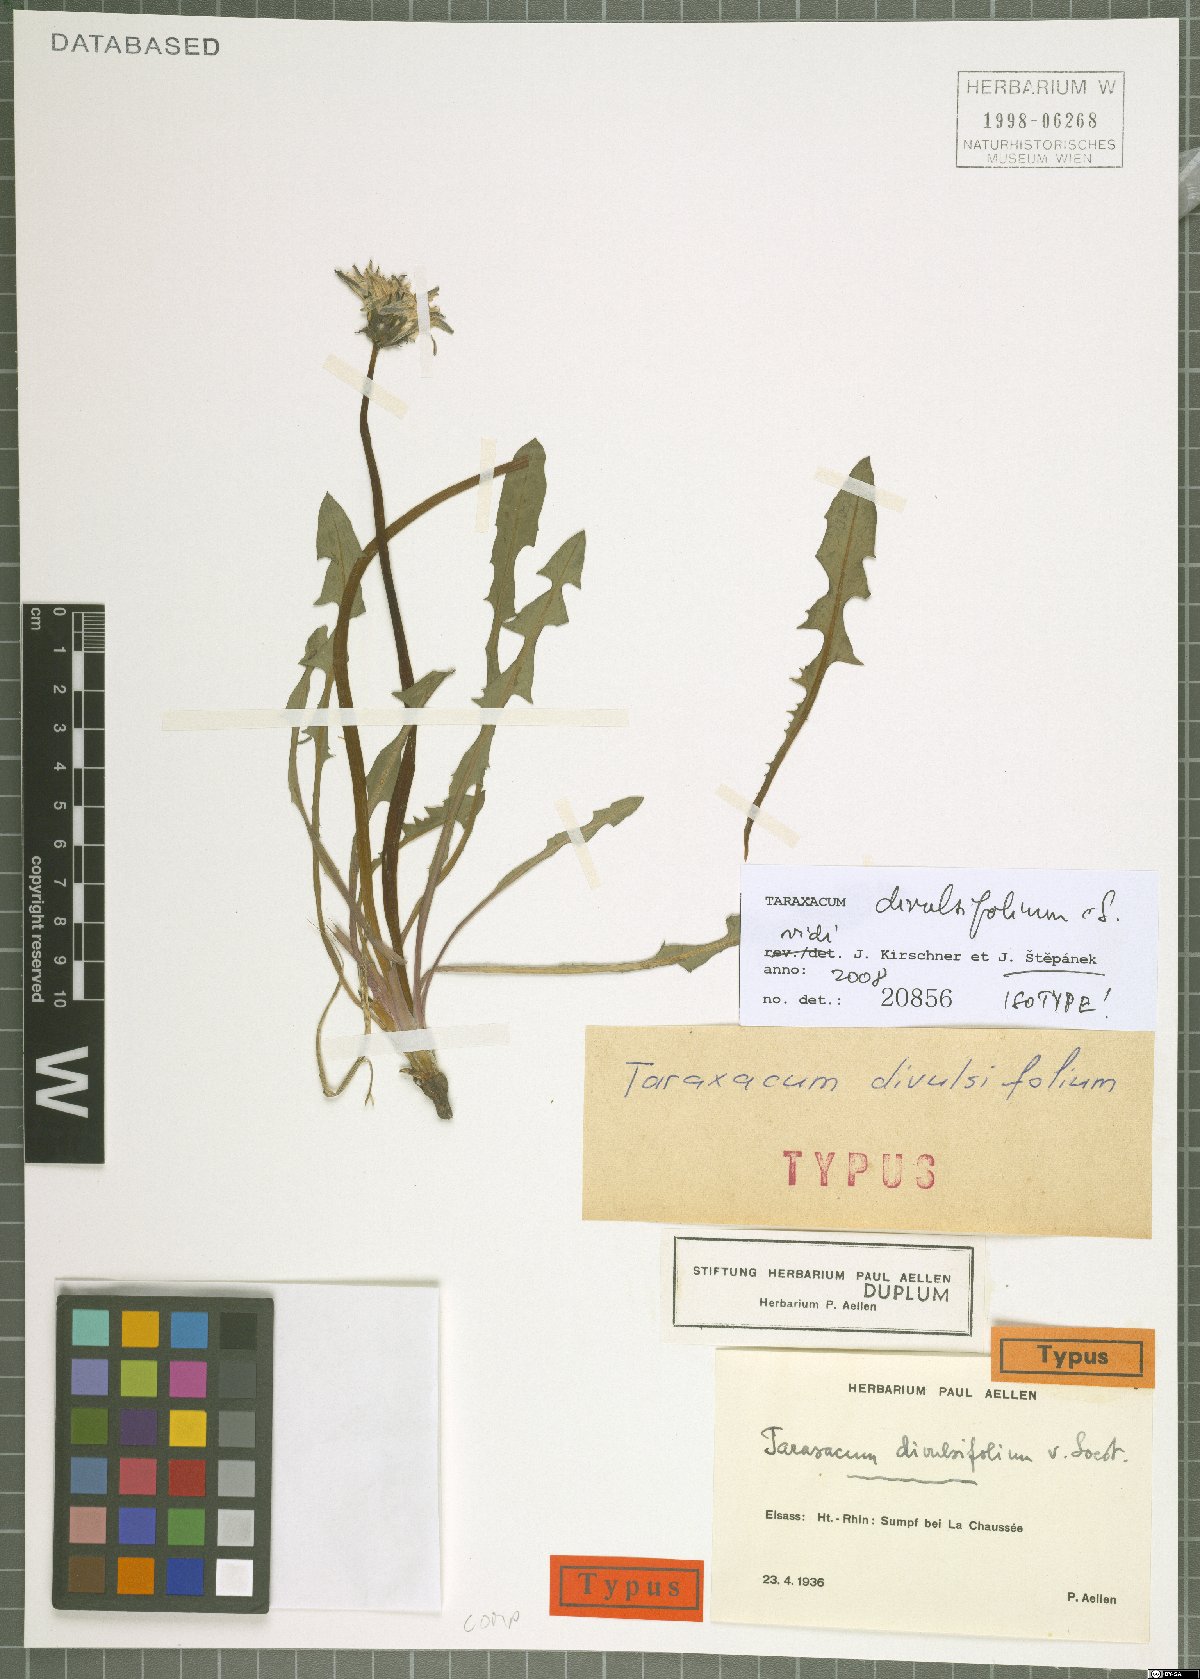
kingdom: Plantae
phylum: Tracheophyta
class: Magnoliopsida
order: Asterales
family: Asteraceae
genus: Taraxacum
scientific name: Taraxacum divulsifolium
